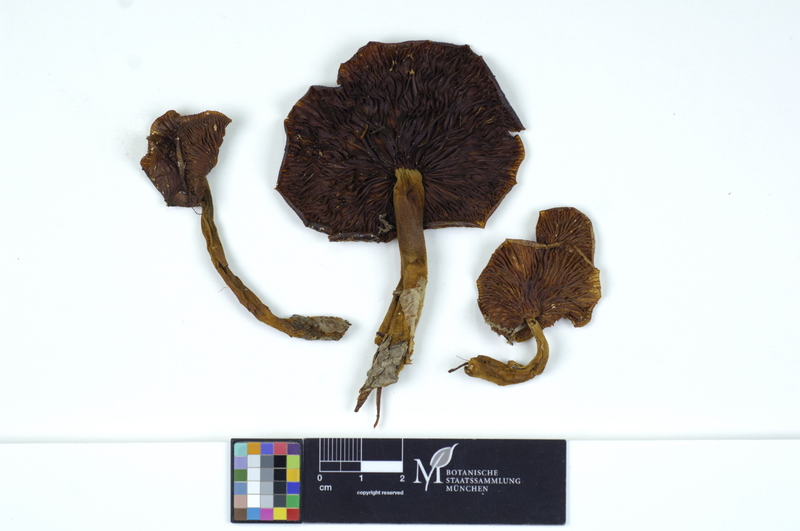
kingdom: Fungi
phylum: Basidiomycota
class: Agaricomycetes
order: Agaricales
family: Physalacriaceae
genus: Flammulina
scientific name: Flammulina velutipes
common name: Velvet shank
